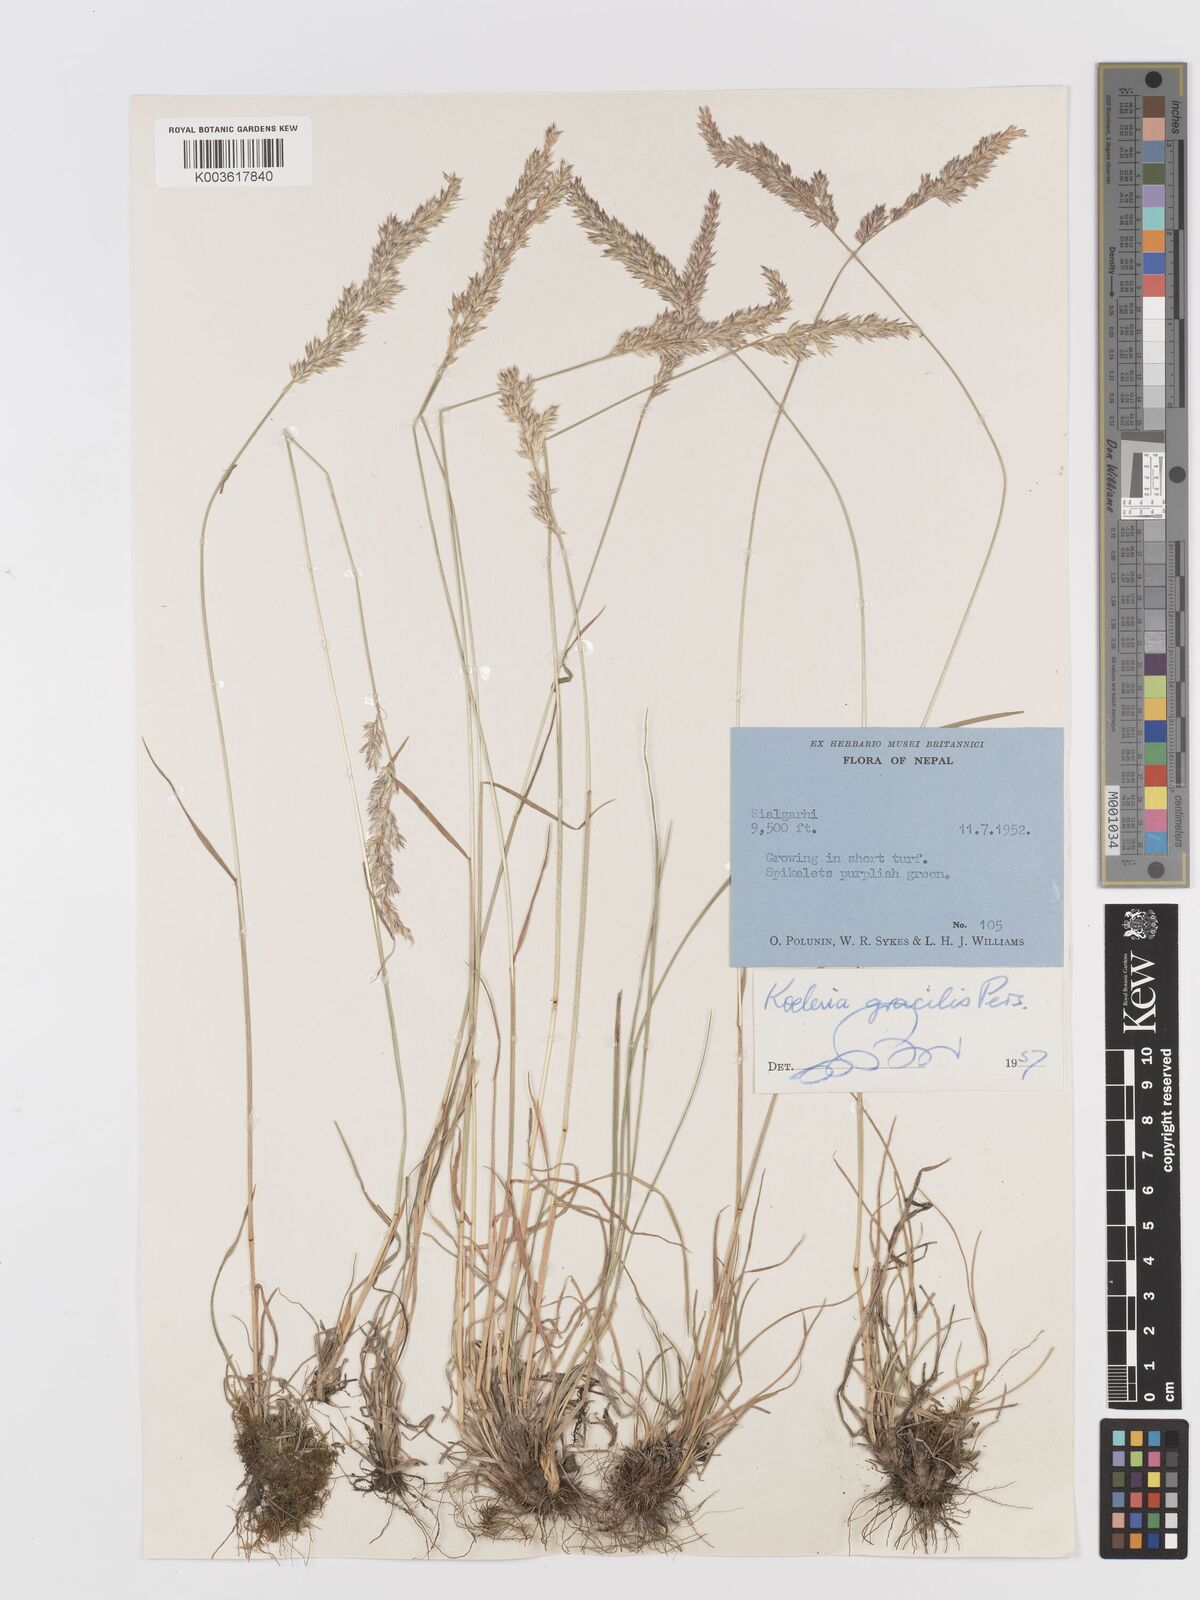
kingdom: Plantae
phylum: Tracheophyta
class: Liliopsida
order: Poales
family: Poaceae
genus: Koeleria
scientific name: Koeleria macrantha
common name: Crested hair-grass
